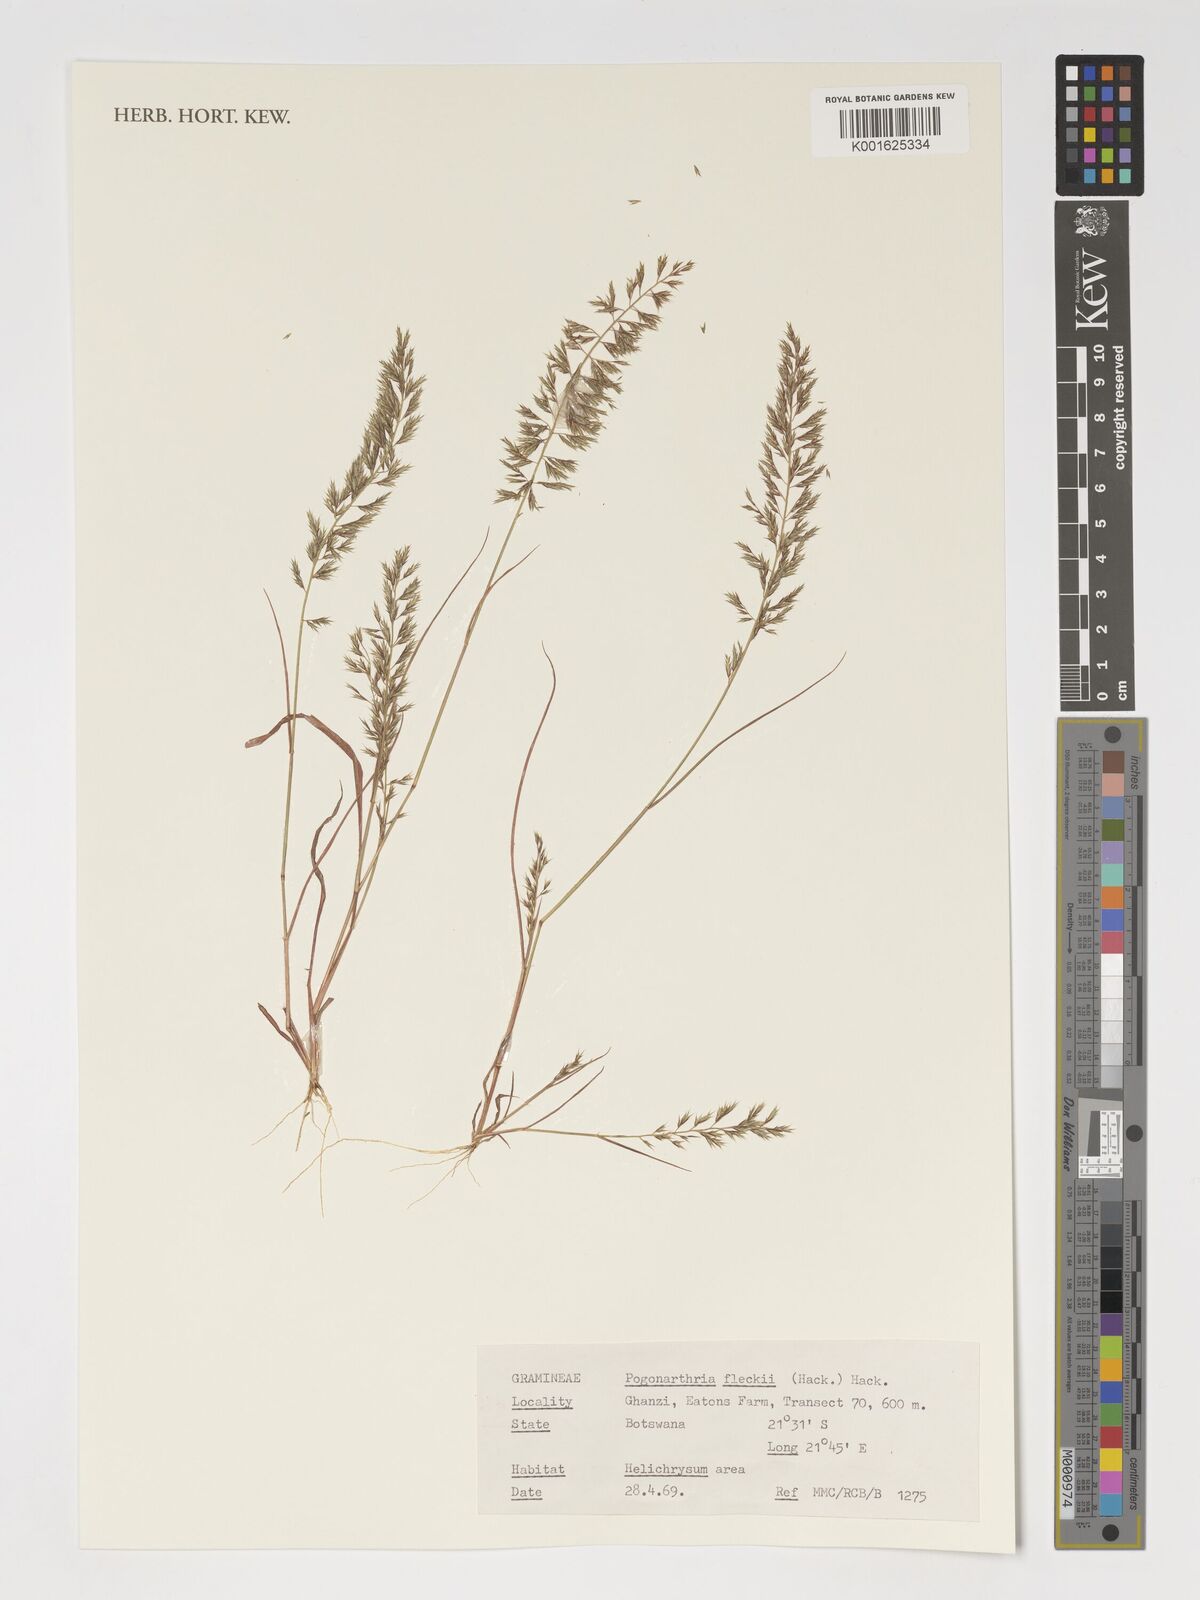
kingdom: Plantae
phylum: Tracheophyta
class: Liliopsida
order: Poales
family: Poaceae
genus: Pogonarthria
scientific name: Pogonarthria fleckii
